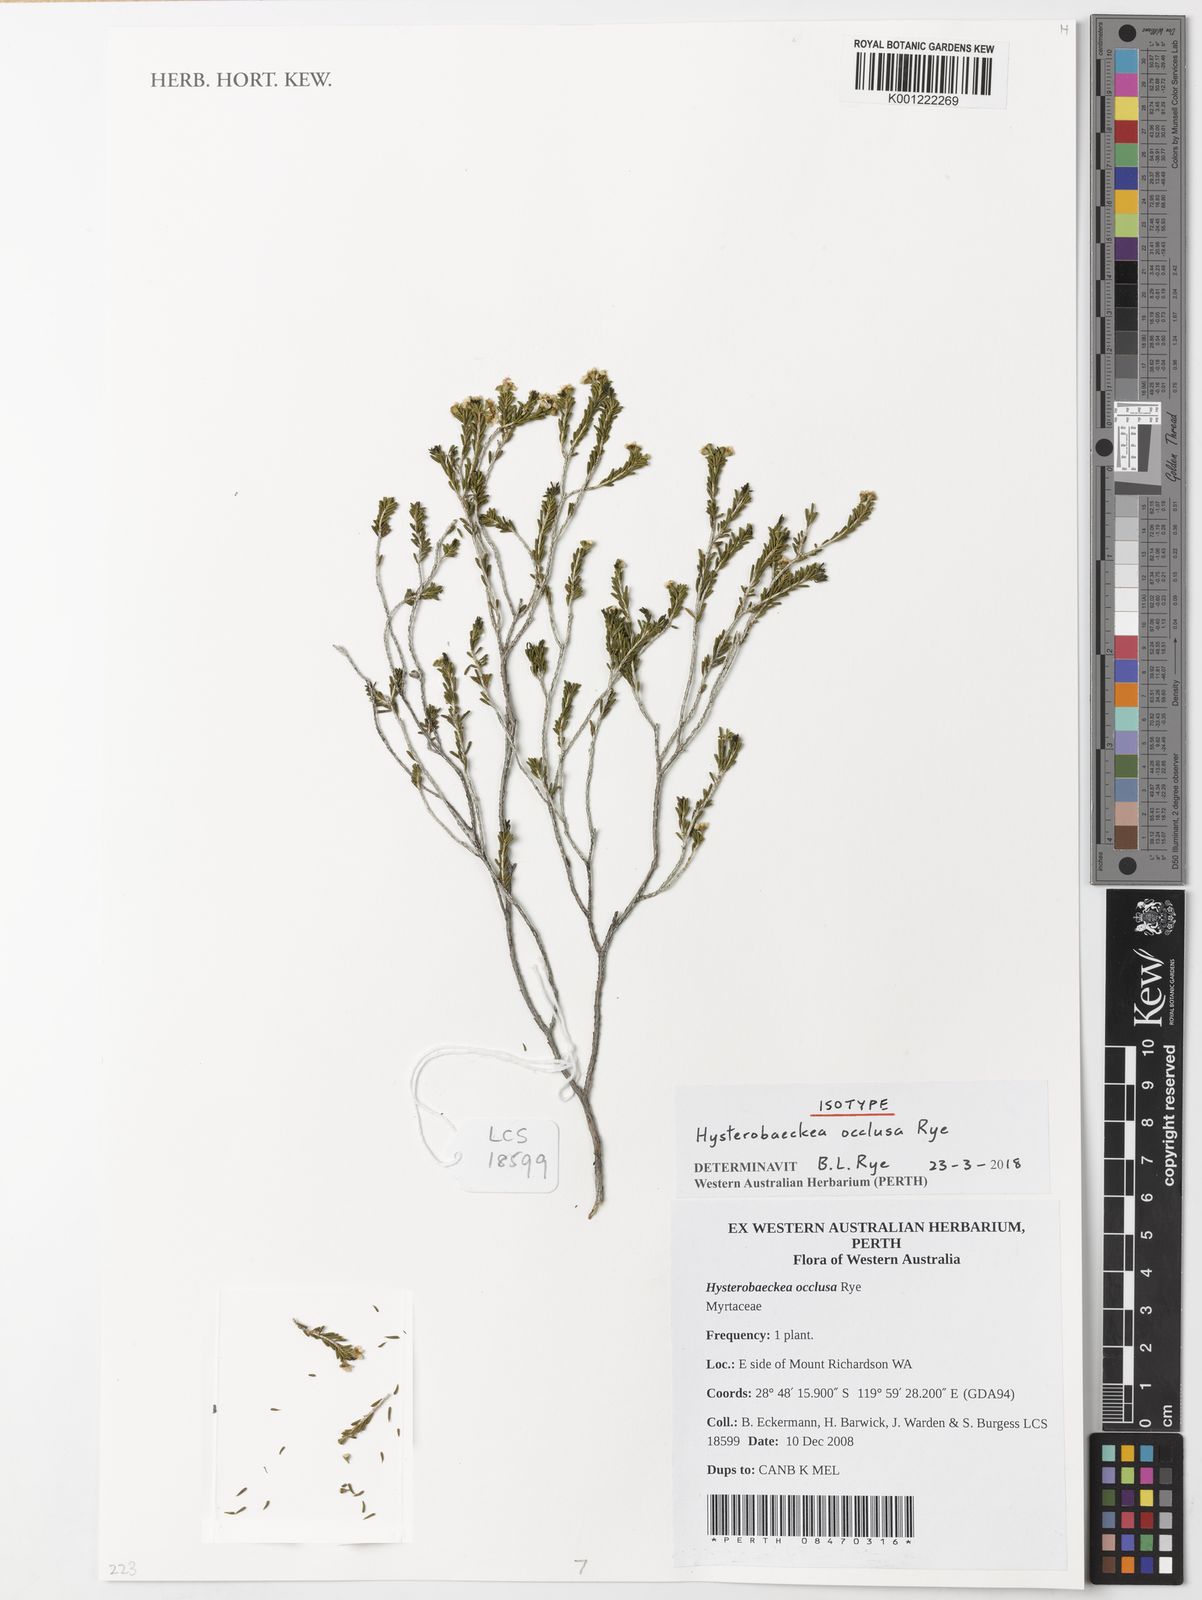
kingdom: Plantae
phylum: Tracheophyta
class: Magnoliopsida
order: Myrtales
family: Myrtaceae
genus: Hysterobaeckea
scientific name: Hysterobaeckea occlusa
